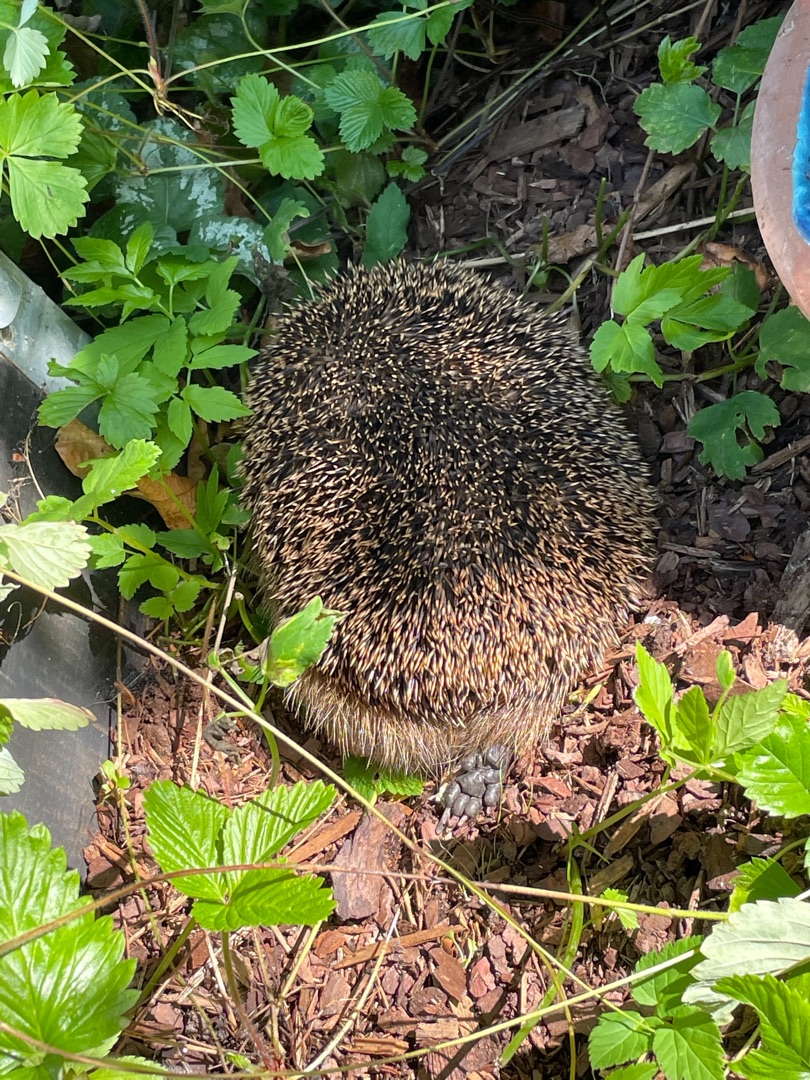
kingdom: Animalia
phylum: Chordata
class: Mammalia
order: Erinaceomorpha
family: Erinaceidae
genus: Erinaceus
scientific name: Erinaceus europaeus
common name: Pindsvin
